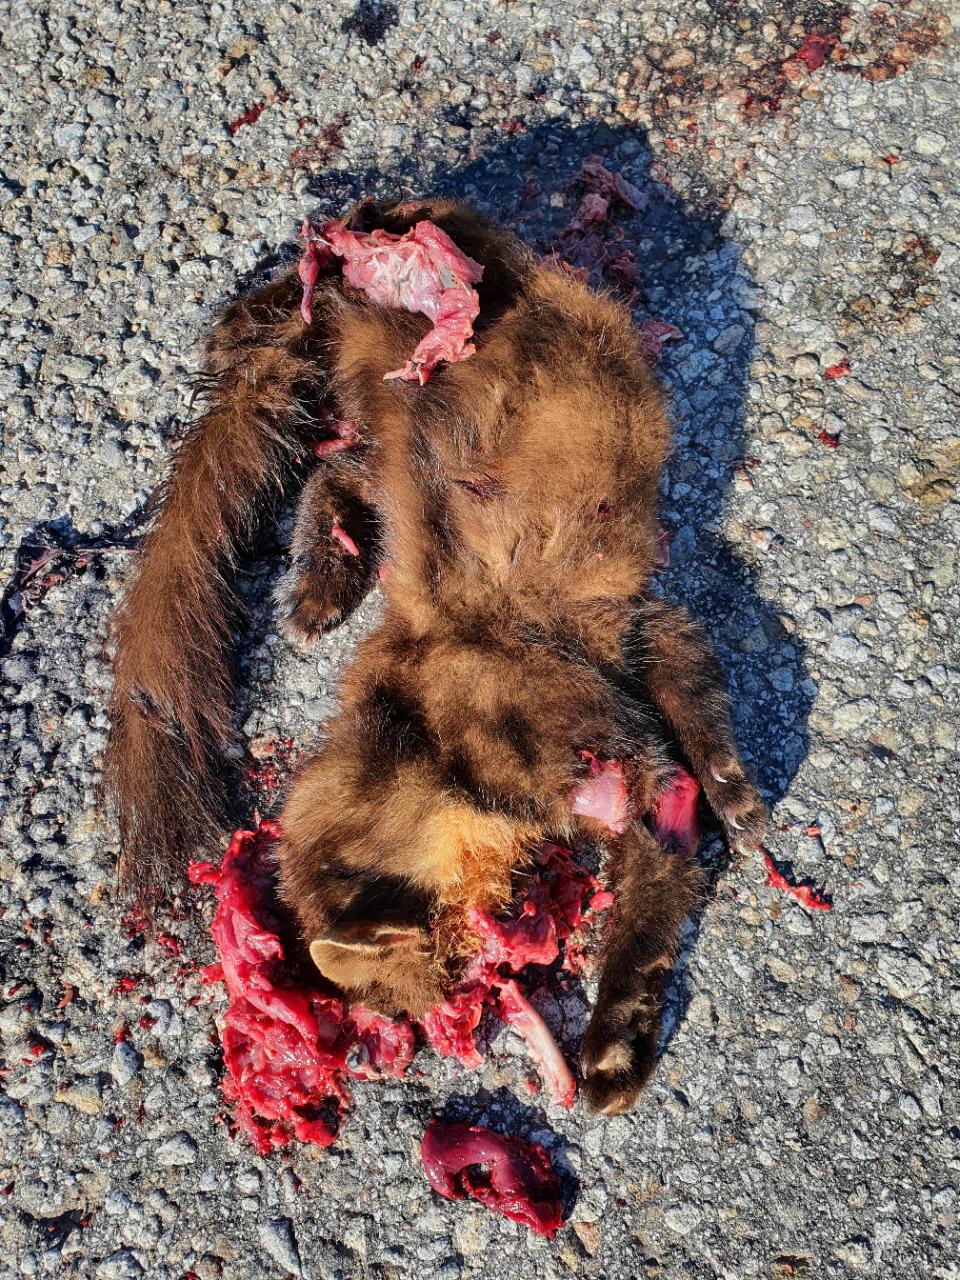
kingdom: Animalia
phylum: Chordata
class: Mammalia
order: Carnivora
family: Mustelidae
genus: Martes
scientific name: Martes martes
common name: European pine marten
